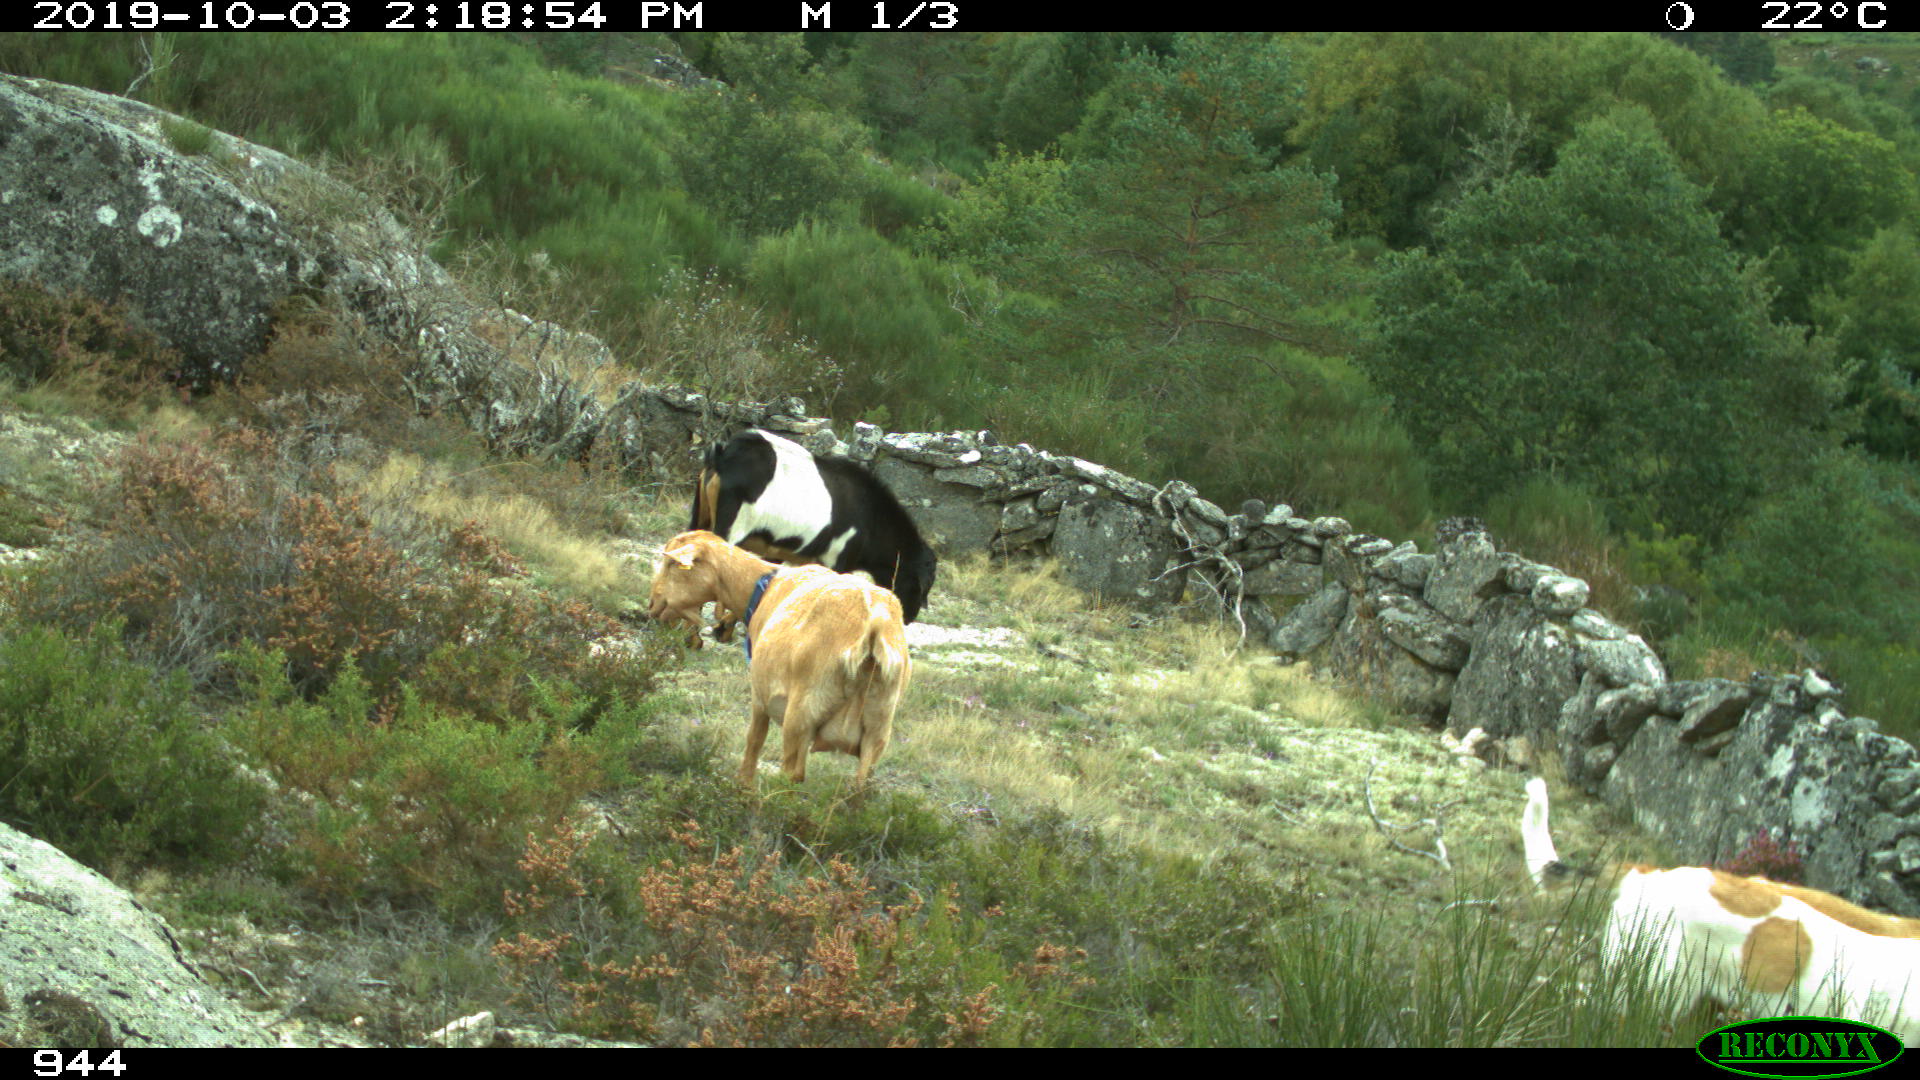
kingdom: Animalia
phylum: Chordata
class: Mammalia
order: Artiodactyla
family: Bovidae
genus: Capra
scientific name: Capra hircus
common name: Domestic goat
